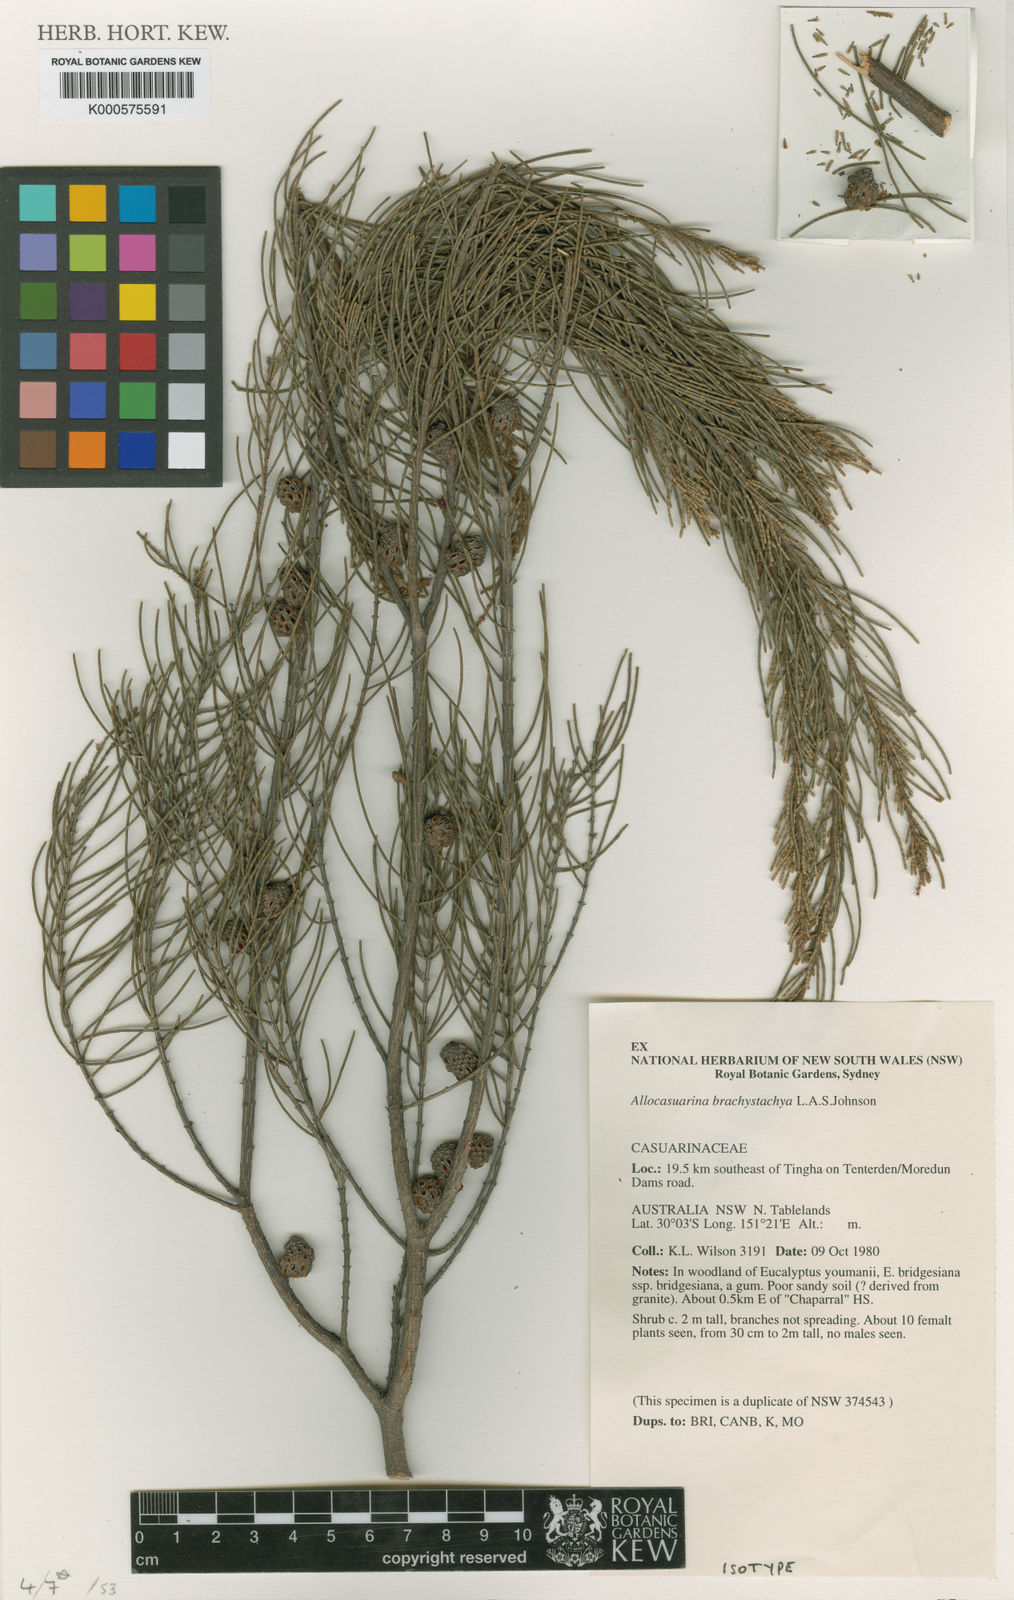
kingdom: Plantae
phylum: Tracheophyta
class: Magnoliopsida
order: Fagales
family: Casuarinaceae
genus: Allocasuarina
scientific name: Allocasuarina brachystachya
